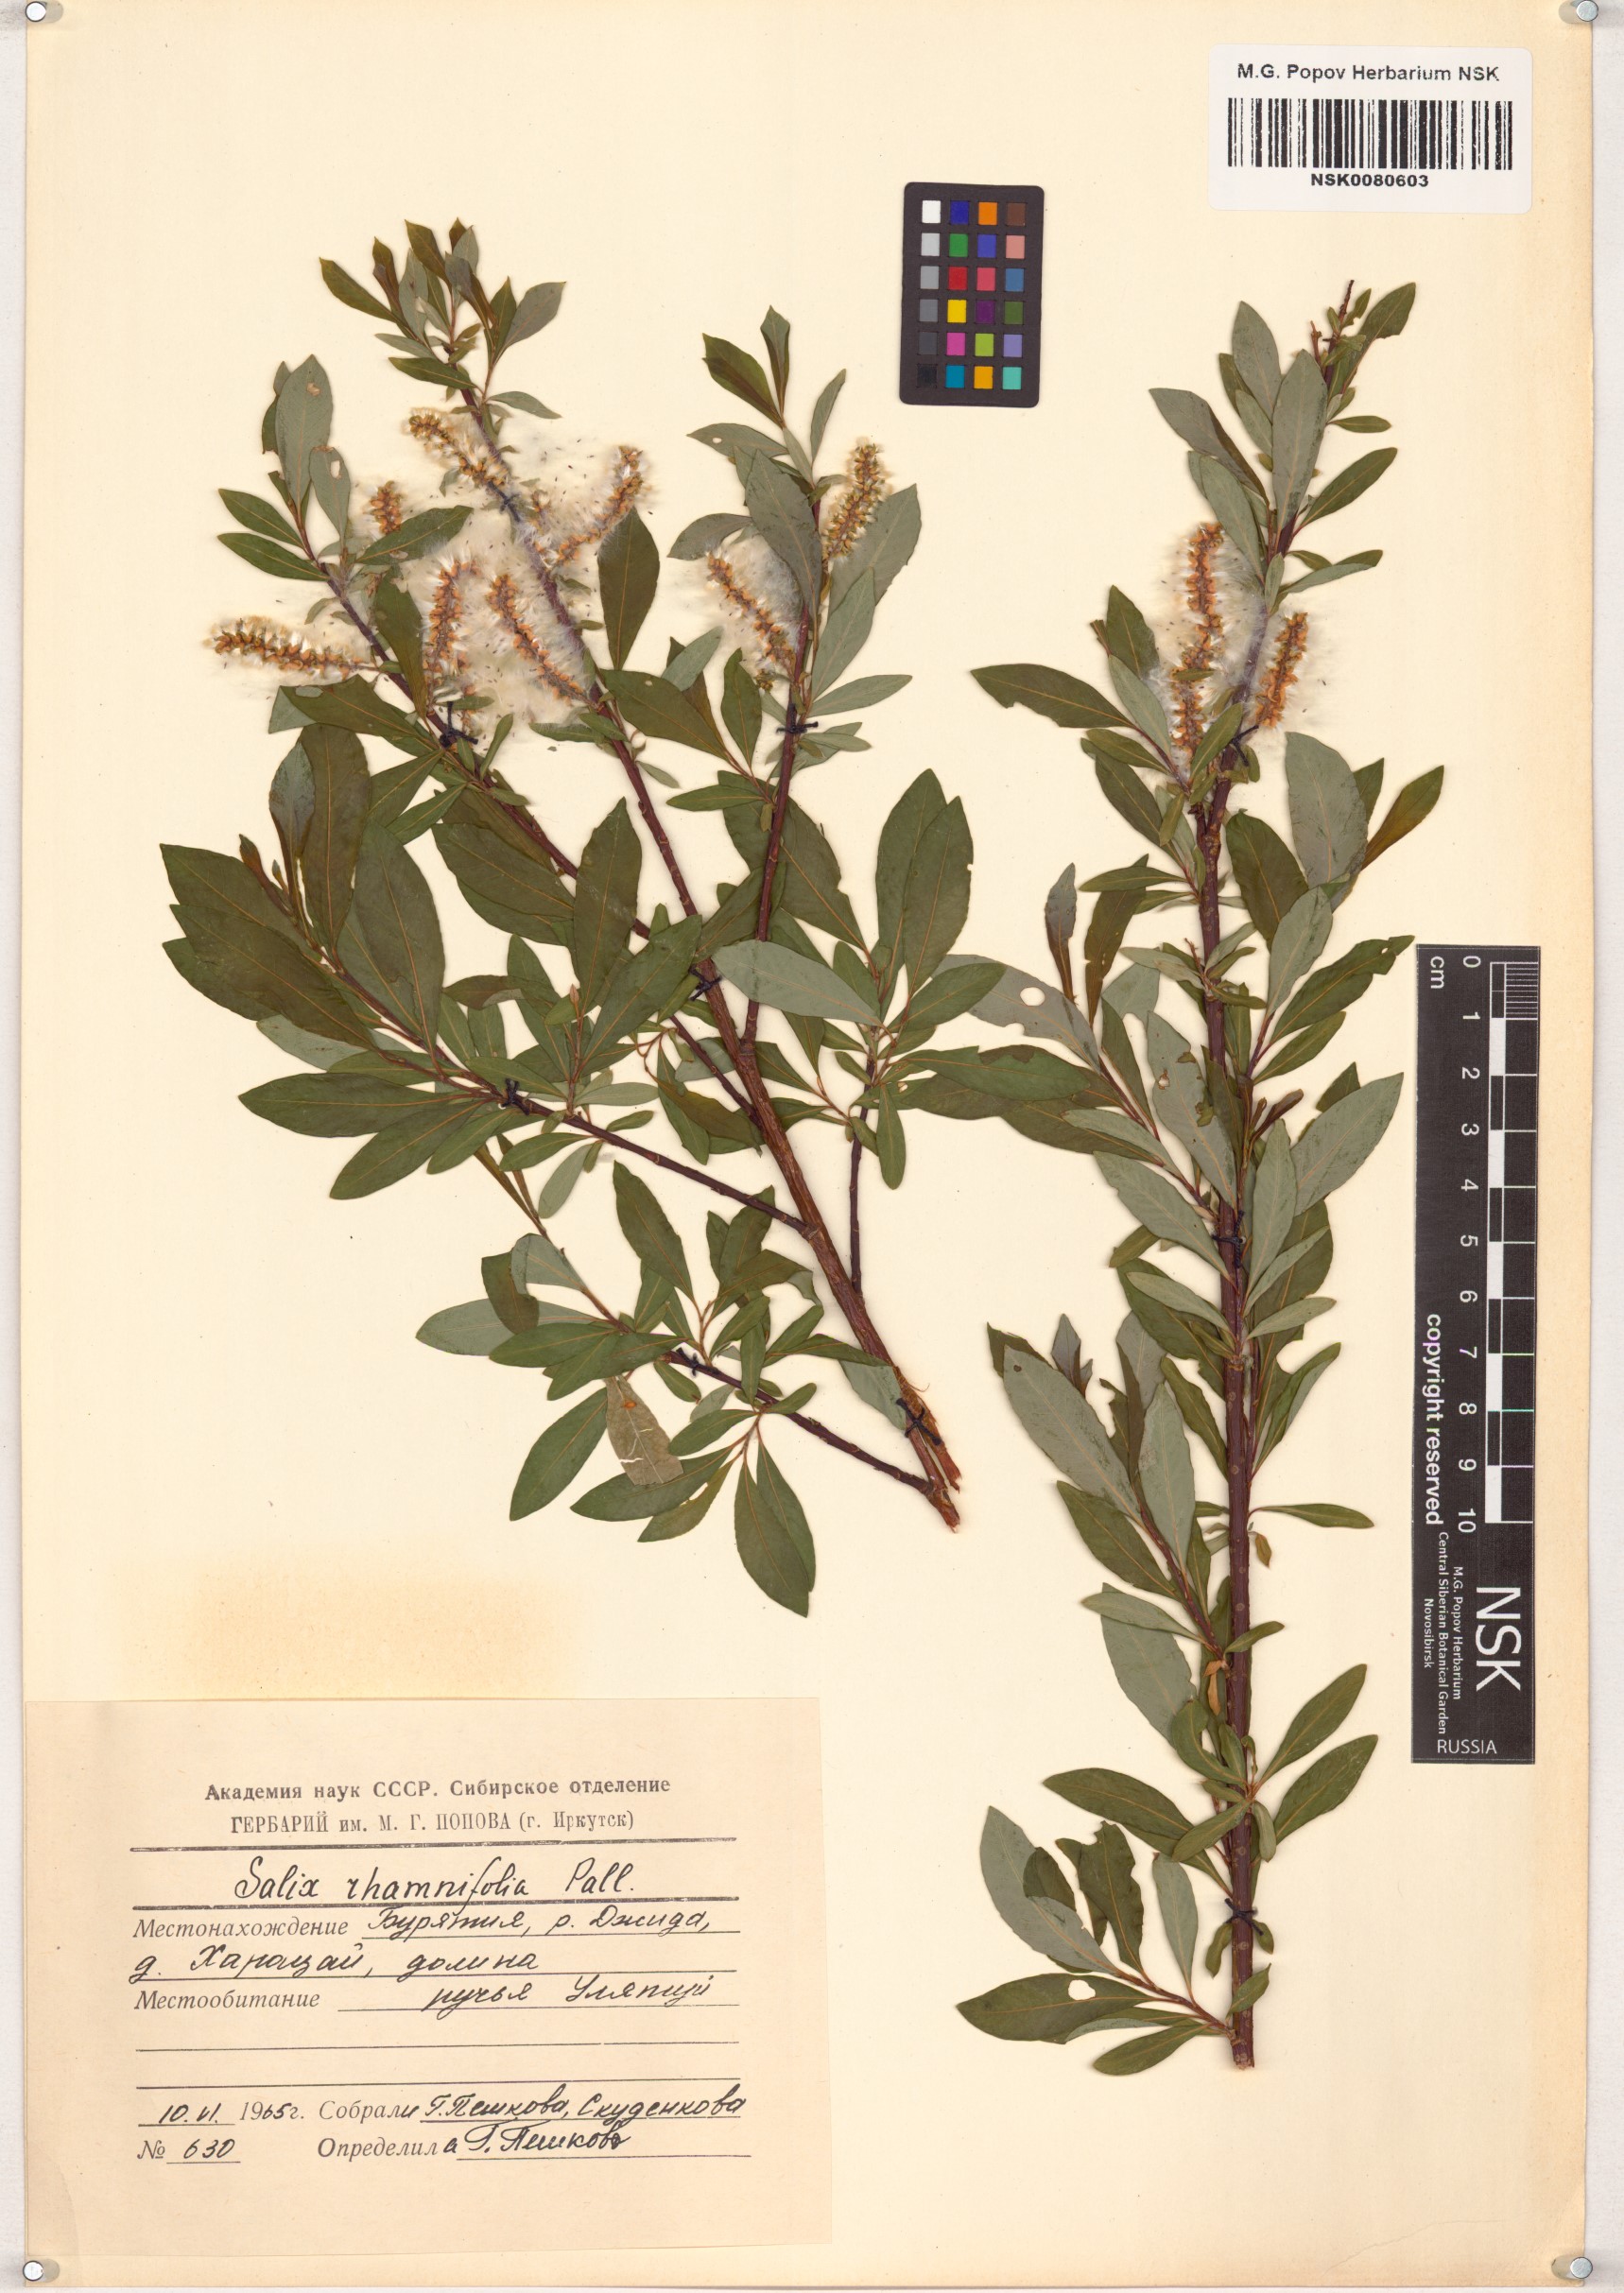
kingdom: Plantae
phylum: Tracheophyta
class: Magnoliopsida
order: Malpighiales
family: Salicaceae
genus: Salix
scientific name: Salix rhamnifolia
